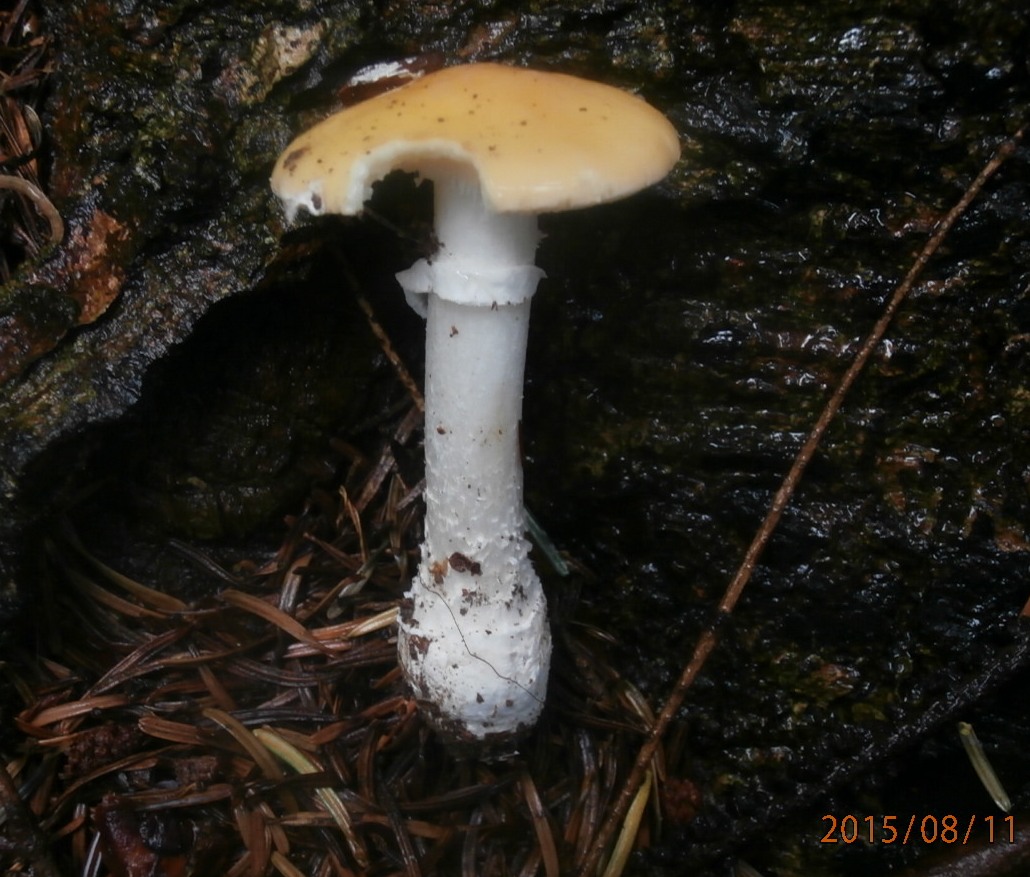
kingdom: Fungi
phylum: Basidiomycota
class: Agaricomycetes
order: Agaricales
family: Amanitaceae
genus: Amanita
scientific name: Amanita gemmata
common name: okkergul fluesvamp
